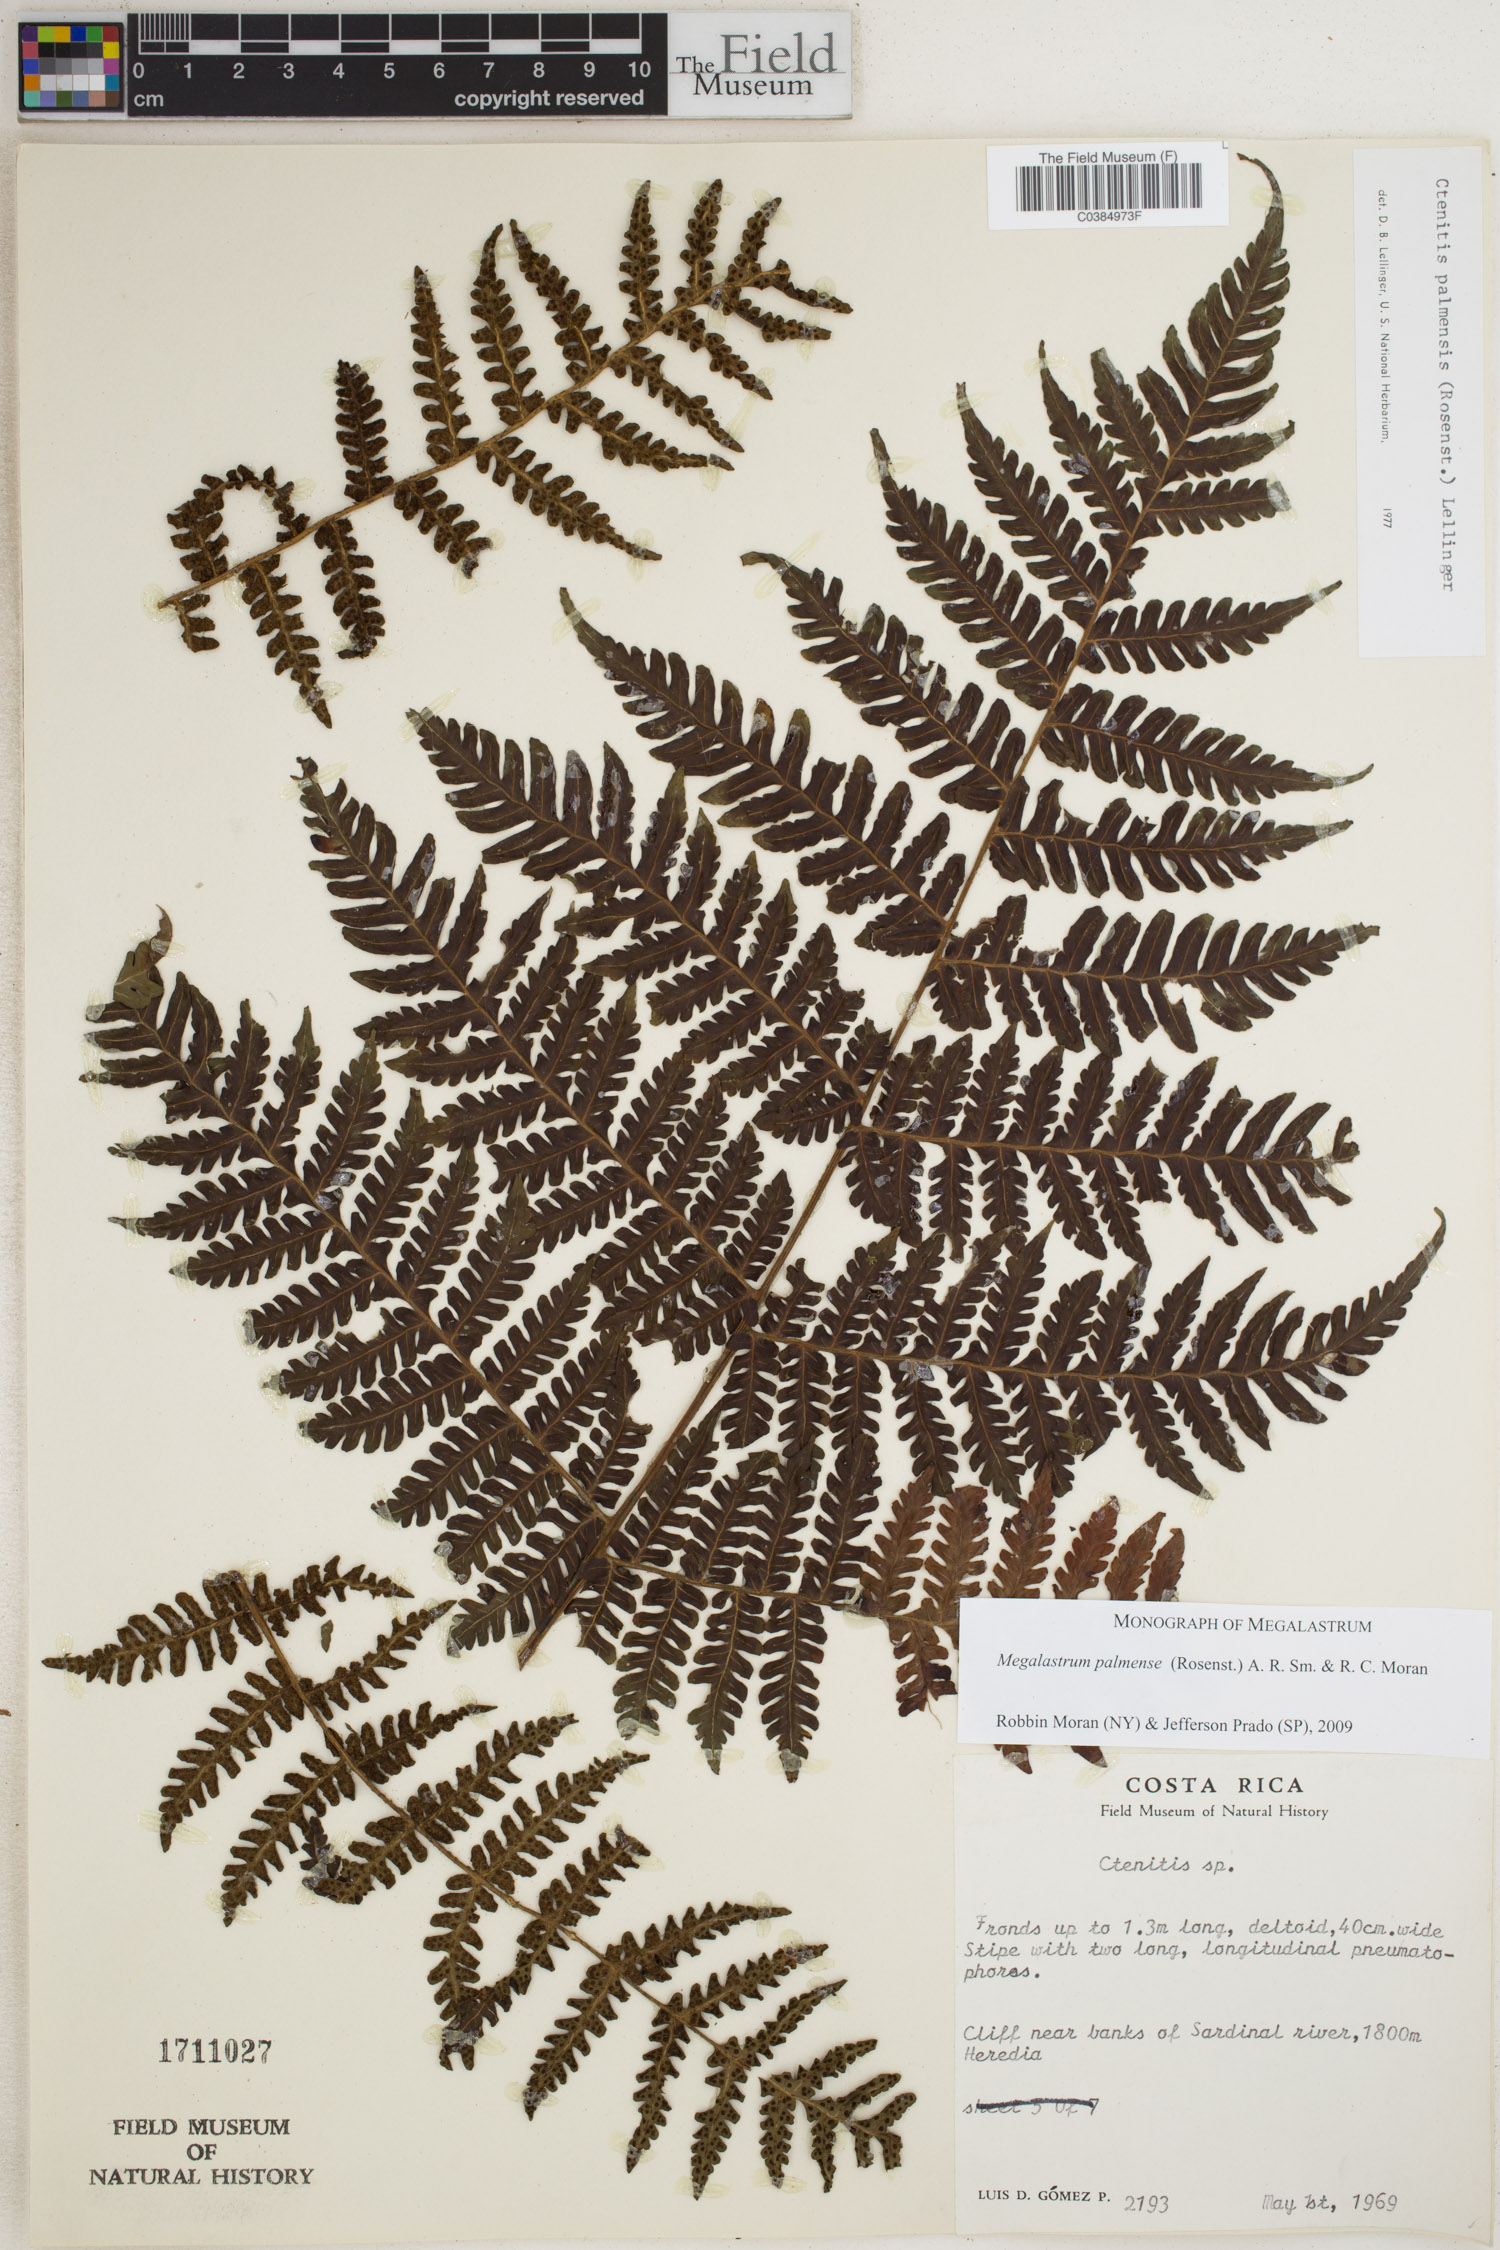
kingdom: Plantae
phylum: Tracheophyta
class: Polypodiopsida
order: Polypodiales
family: Dryopteridaceae
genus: Megalastrum
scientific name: Megalastrum palmense
